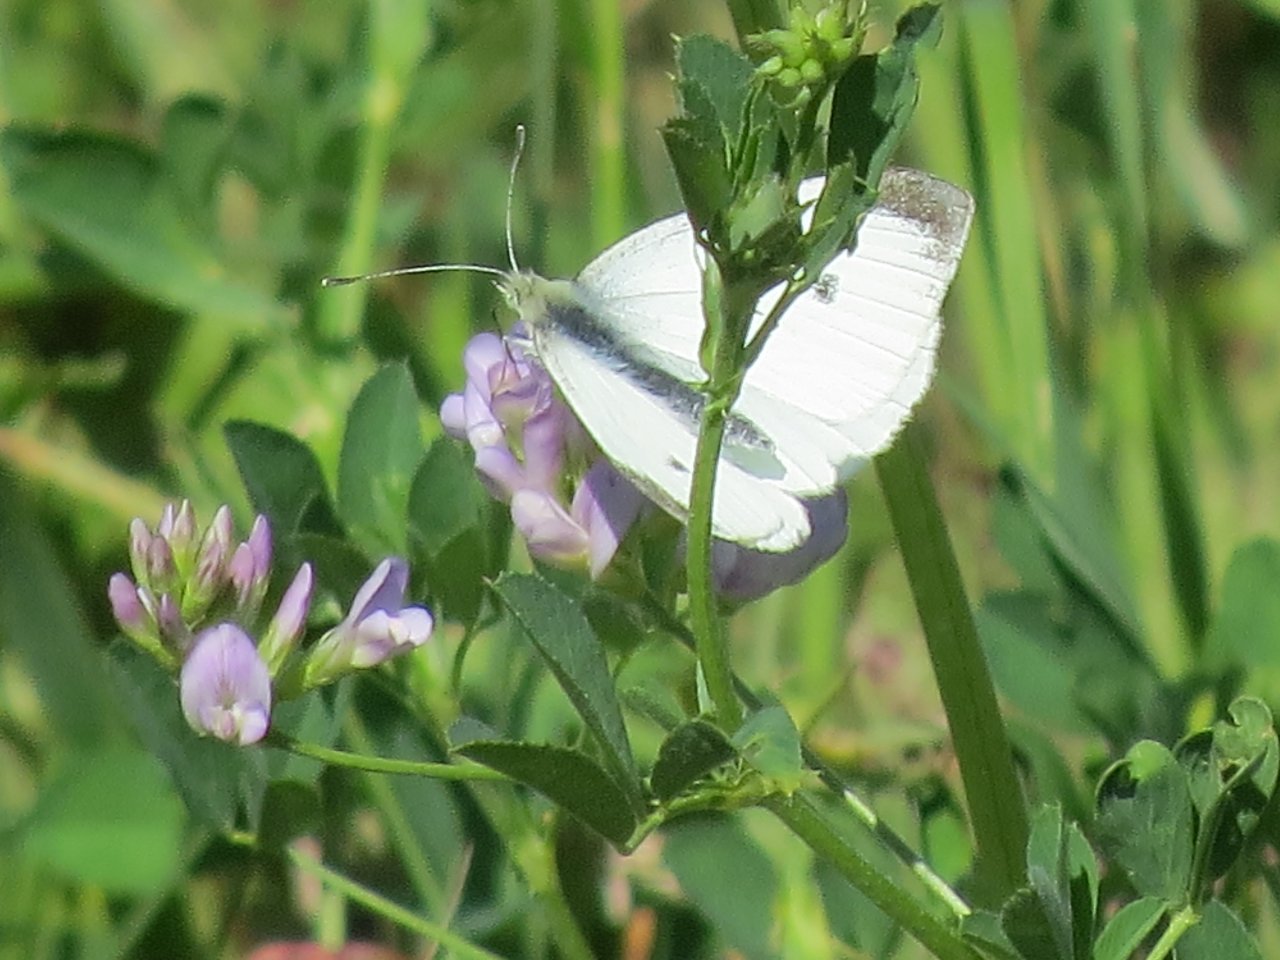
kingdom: Animalia
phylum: Arthropoda
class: Insecta
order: Lepidoptera
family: Pieridae
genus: Pieris
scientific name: Pieris rapae
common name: Cabbage White
